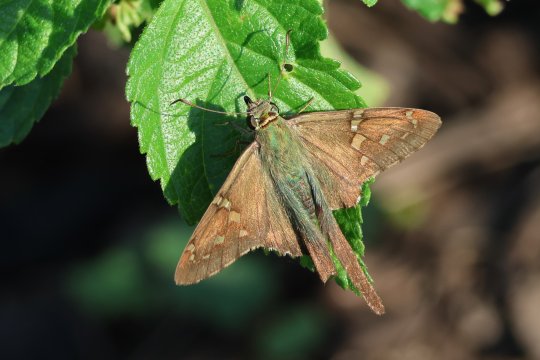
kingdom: Animalia
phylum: Arthropoda
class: Insecta
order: Lepidoptera
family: Hesperiidae
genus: Urbanus
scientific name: Urbanus proteus
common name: Long-tailed Skipper
